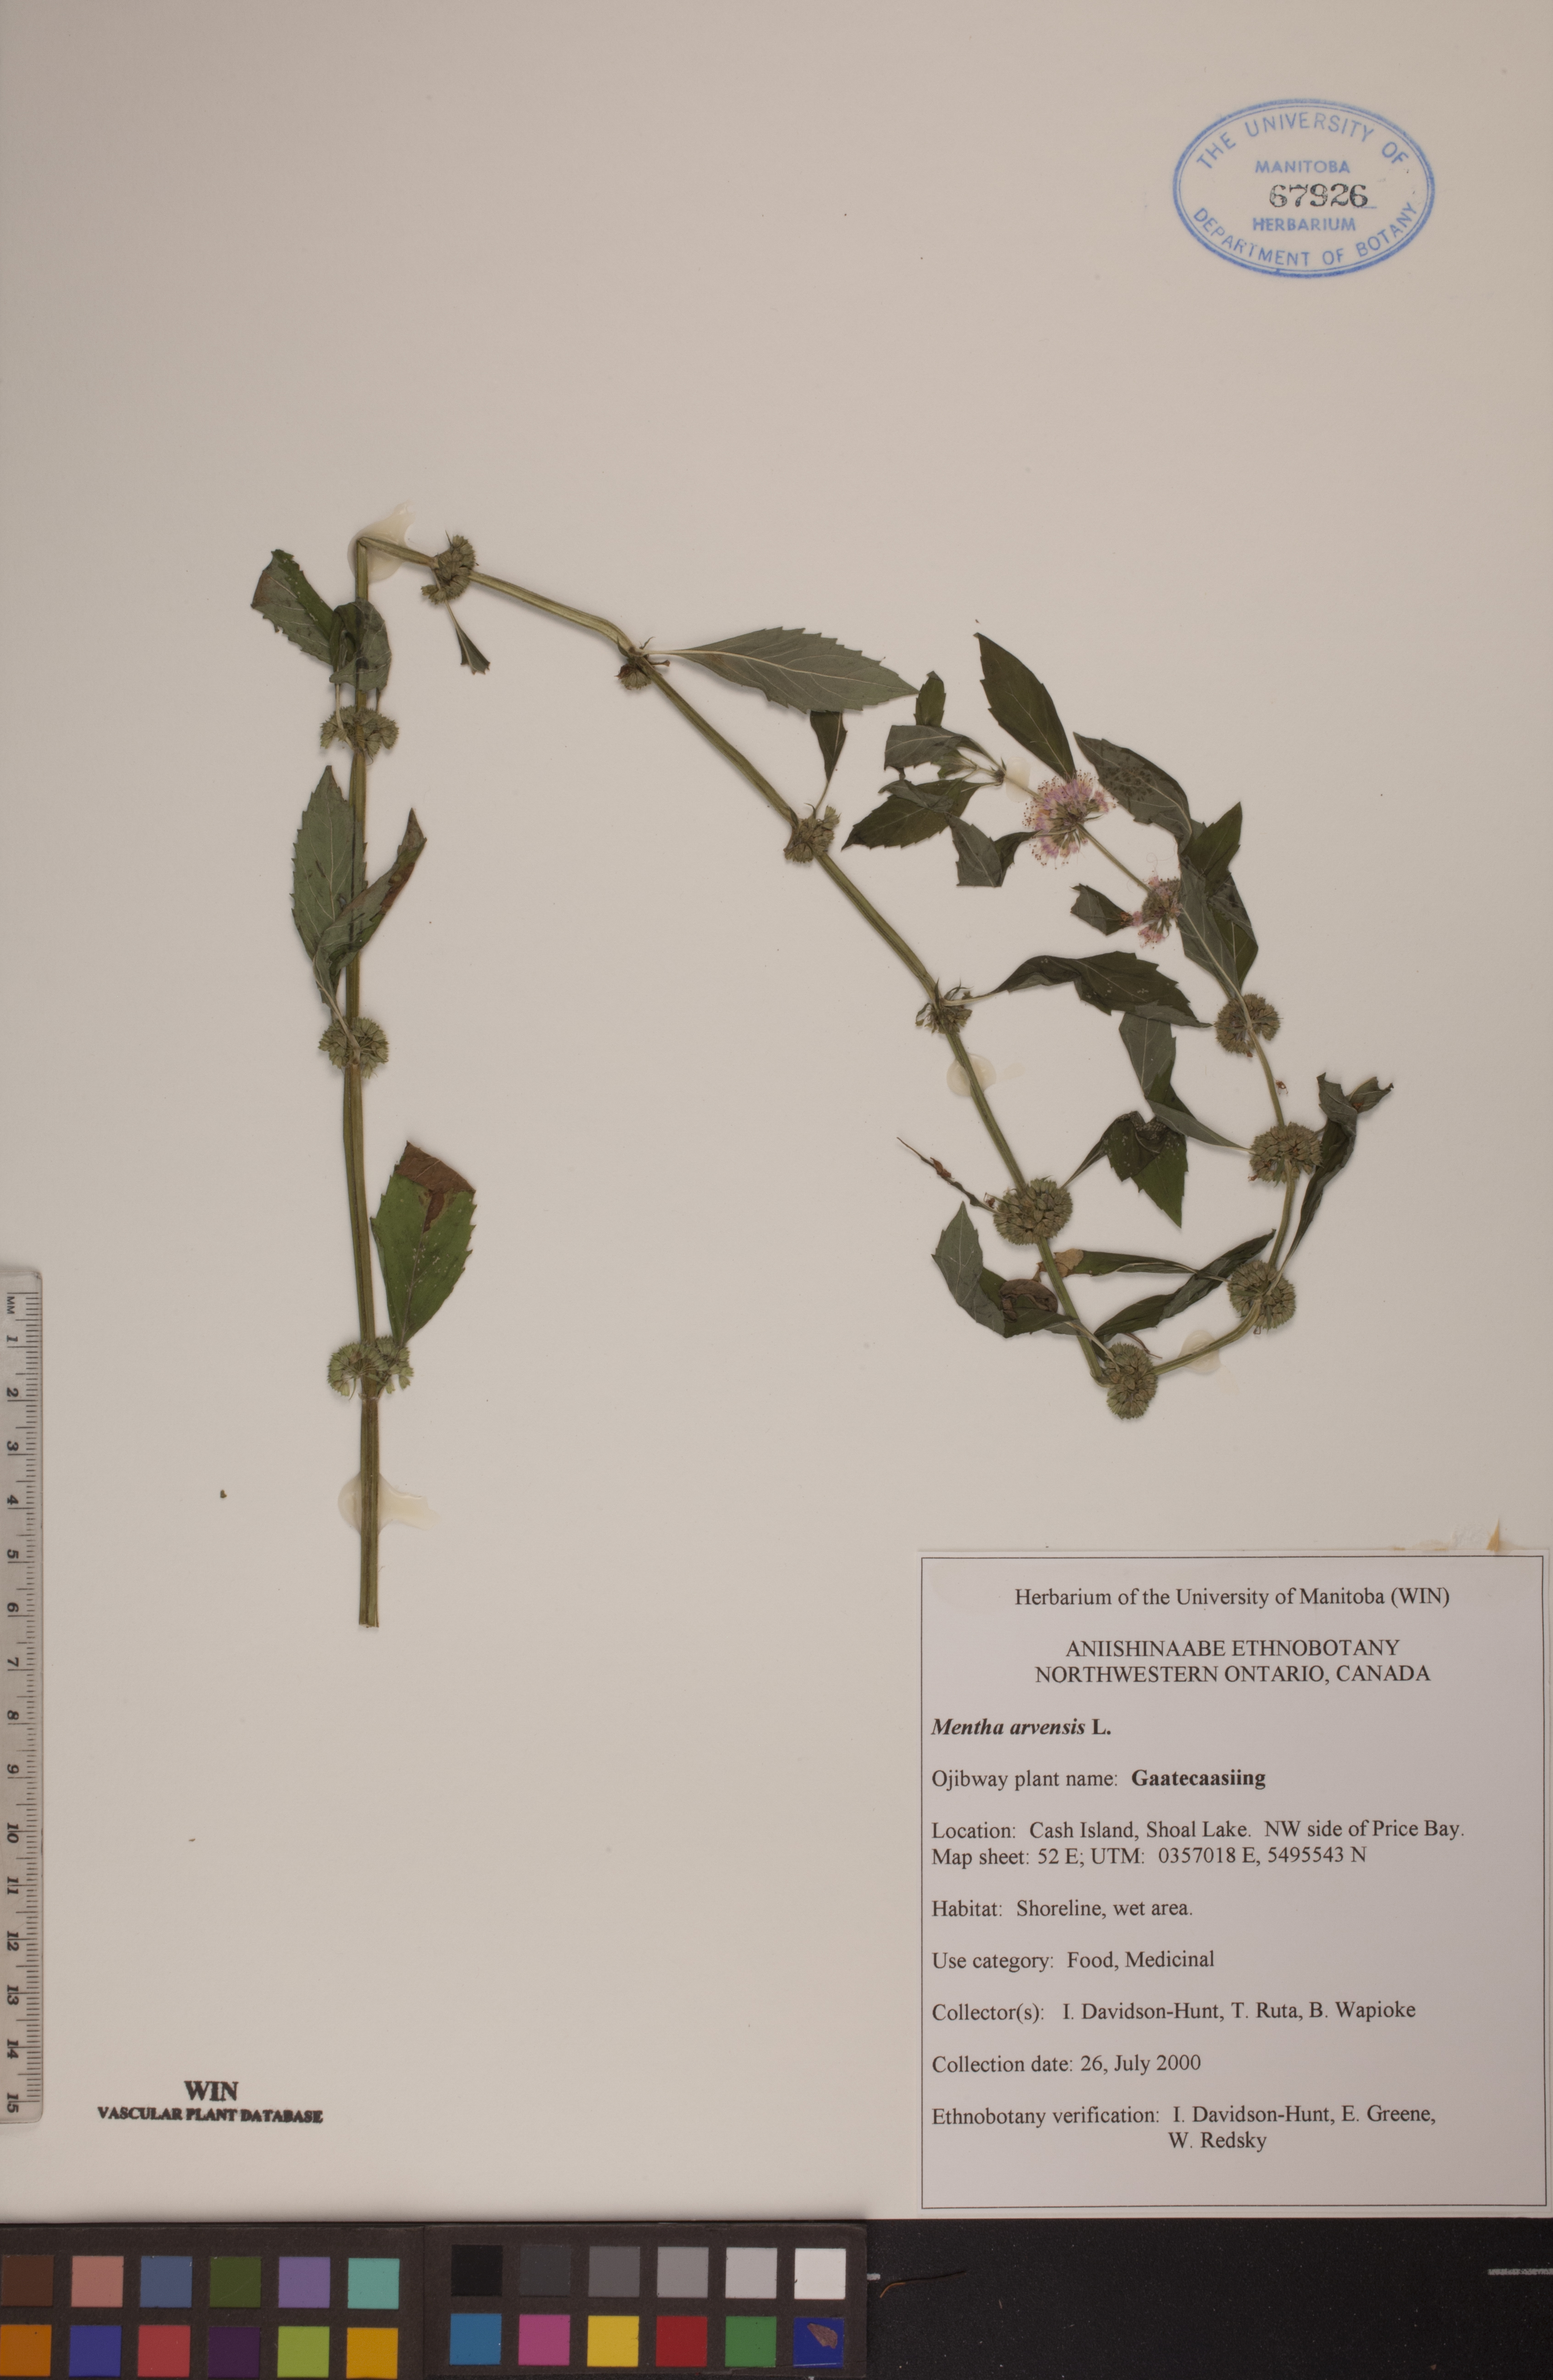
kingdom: Plantae
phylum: Tracheophyta
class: Magnoliopsida
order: Lamiales
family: Lamiaceae
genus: Mentha
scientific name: Mentha arvensis
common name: Corn mint
